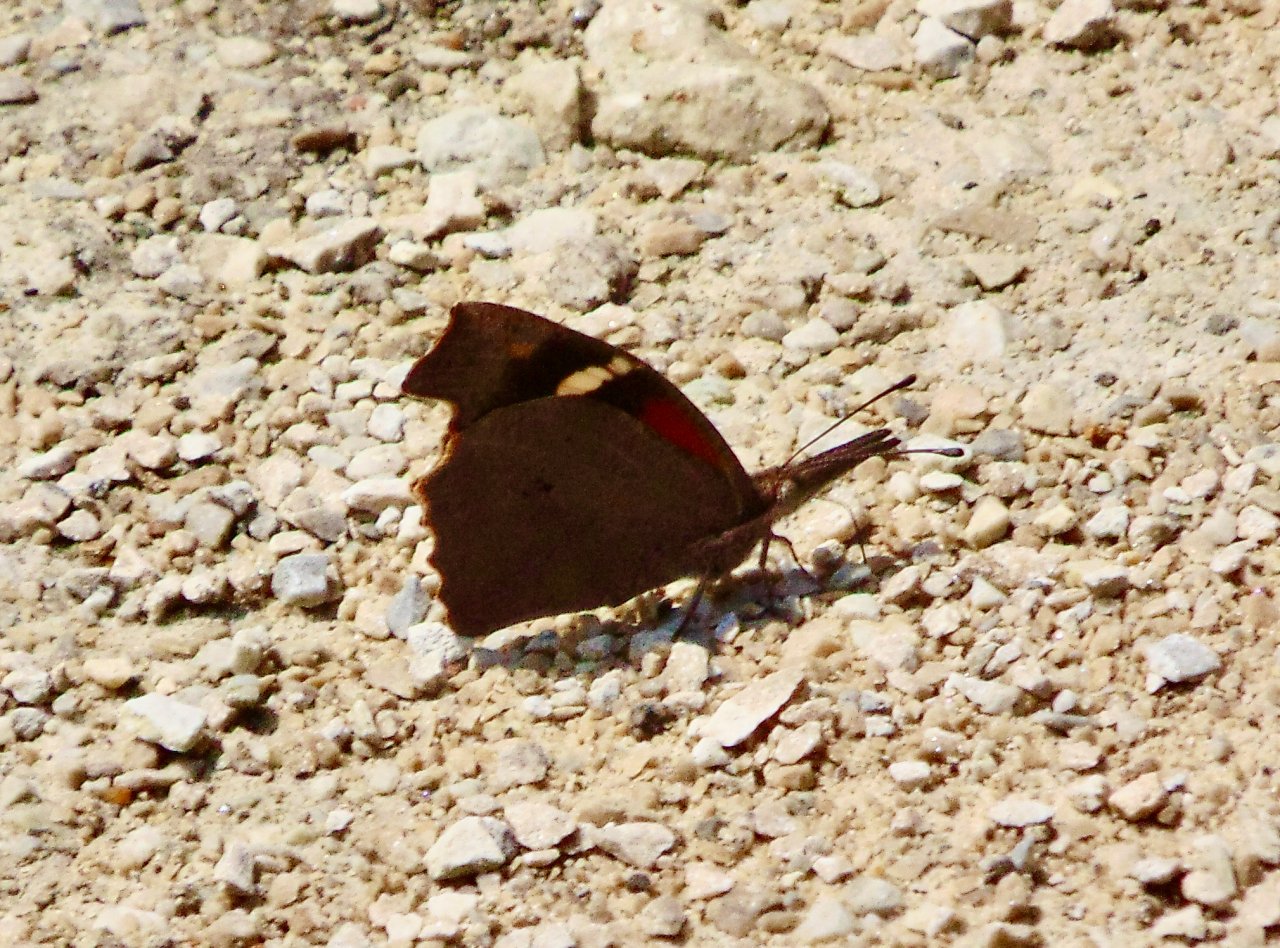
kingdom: Animalia
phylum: Arthropoda
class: Insecta
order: Lepidoptera
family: Nymphalidae
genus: Libytheana
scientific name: Libytheana carinenta
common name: American Snout
